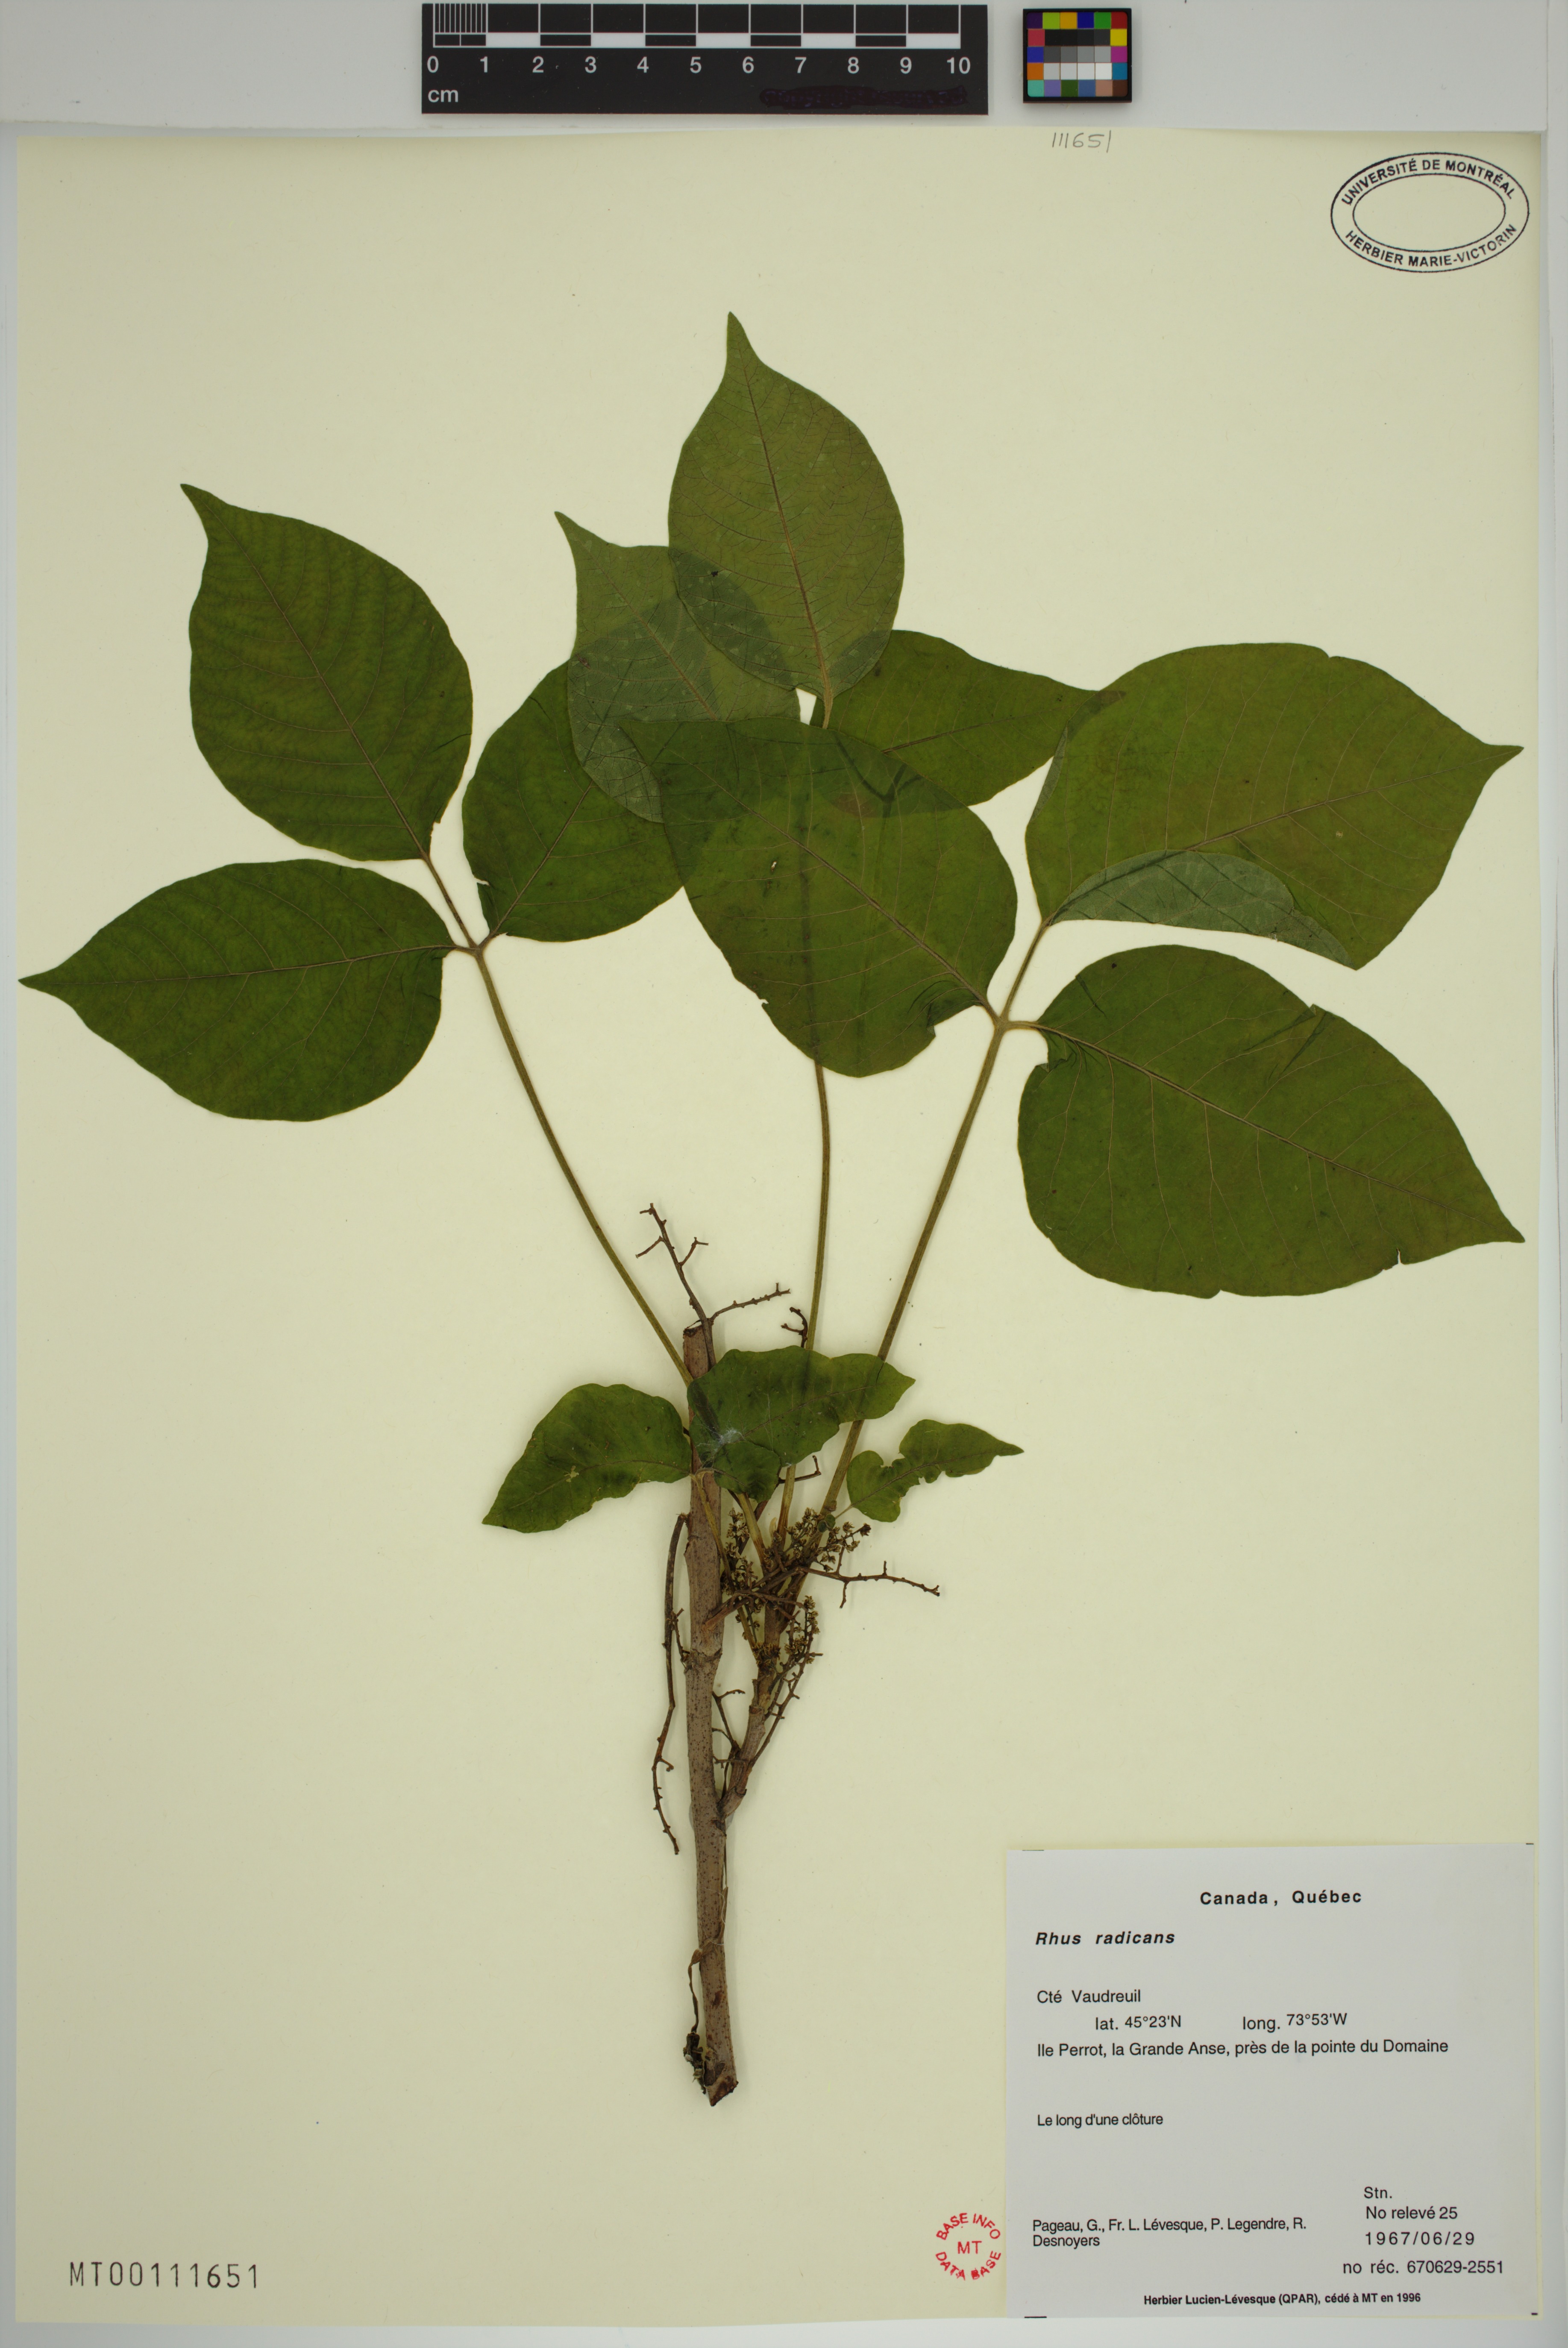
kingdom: Plantae
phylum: Tracheophyta
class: Magnoliopsida
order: Sapindales
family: Anacardiaceae
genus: Toxicodendron
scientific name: Toxicodendron radicans
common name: Poison ivy
